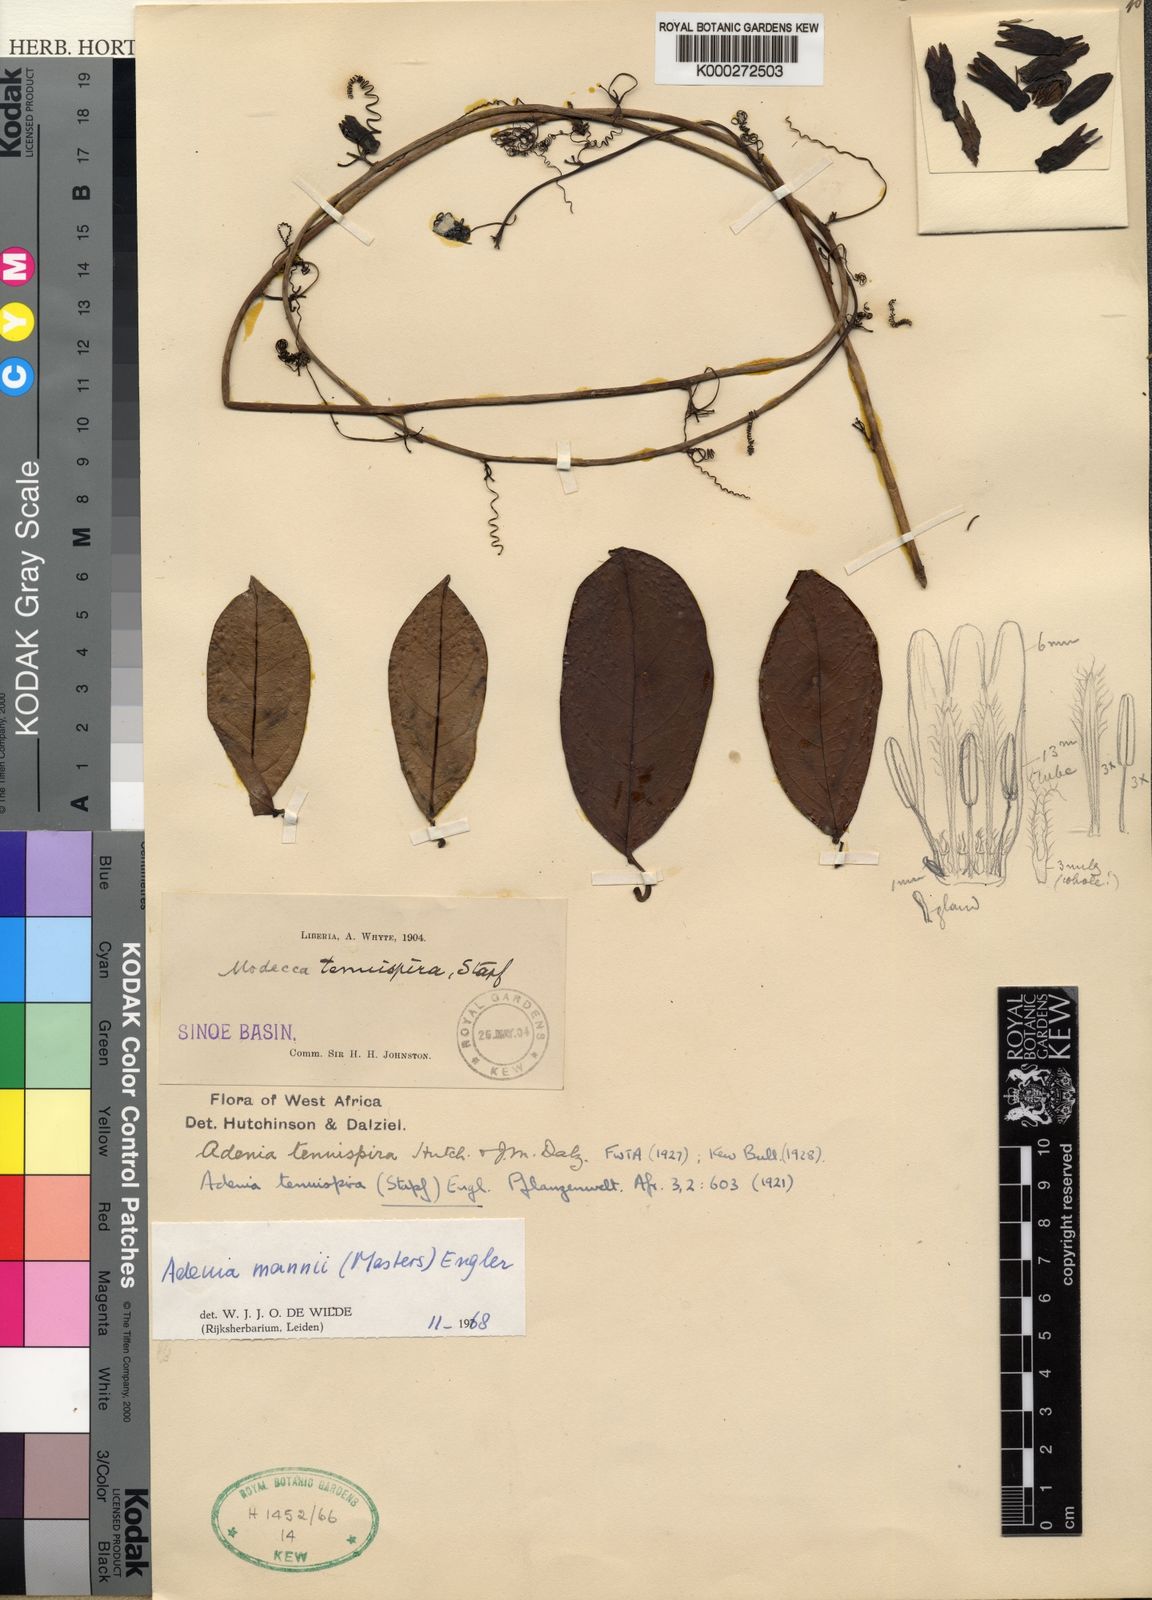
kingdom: Plantae
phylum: Tracheophyta
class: Magnoliopsida
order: Malpighiales
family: Passifloraceae
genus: Adenia
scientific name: Adenia mannii
